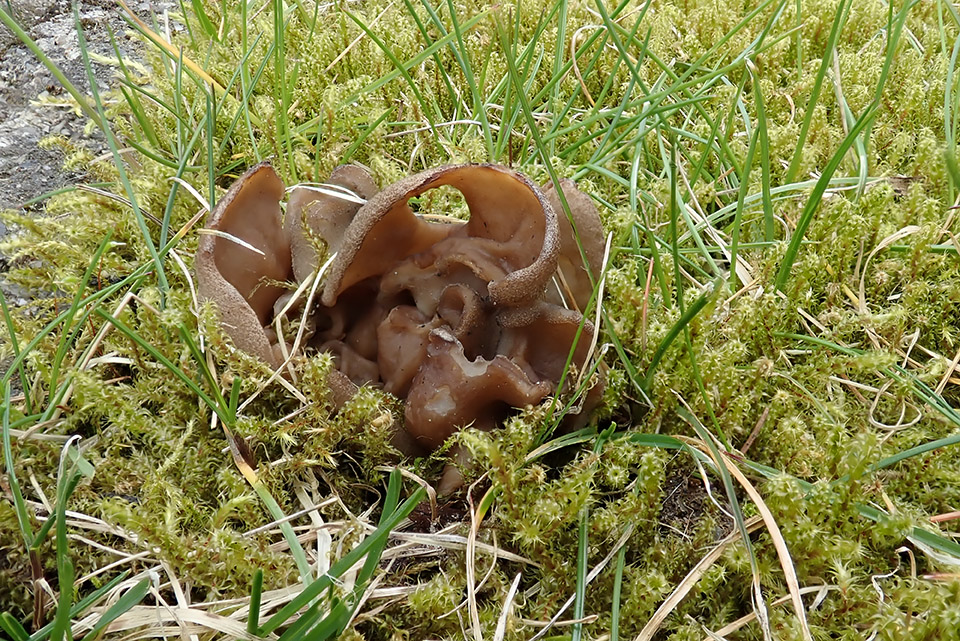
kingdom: Fungi
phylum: Ascomycota
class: Pezizomycetes
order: Pezizales
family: Morchellaceae
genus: Disciotis
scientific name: Disciotis venosa
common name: klor-bægermorkel
